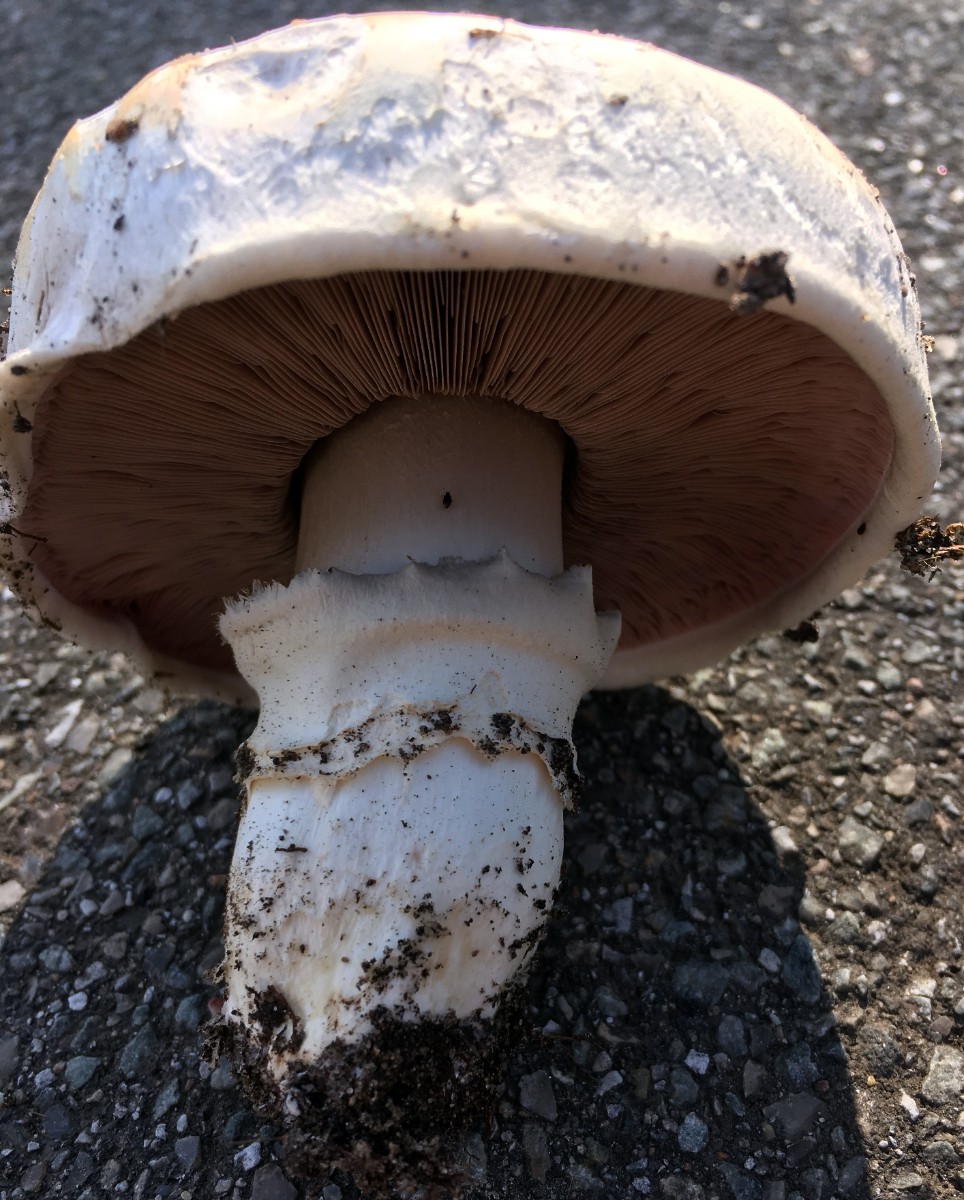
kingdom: Fungi
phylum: Basidiomycota
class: Agaricomycetes
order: Agaricales
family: Agaricaceae
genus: Agaricus
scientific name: Agaricus bitorquis
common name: vej-champignon
